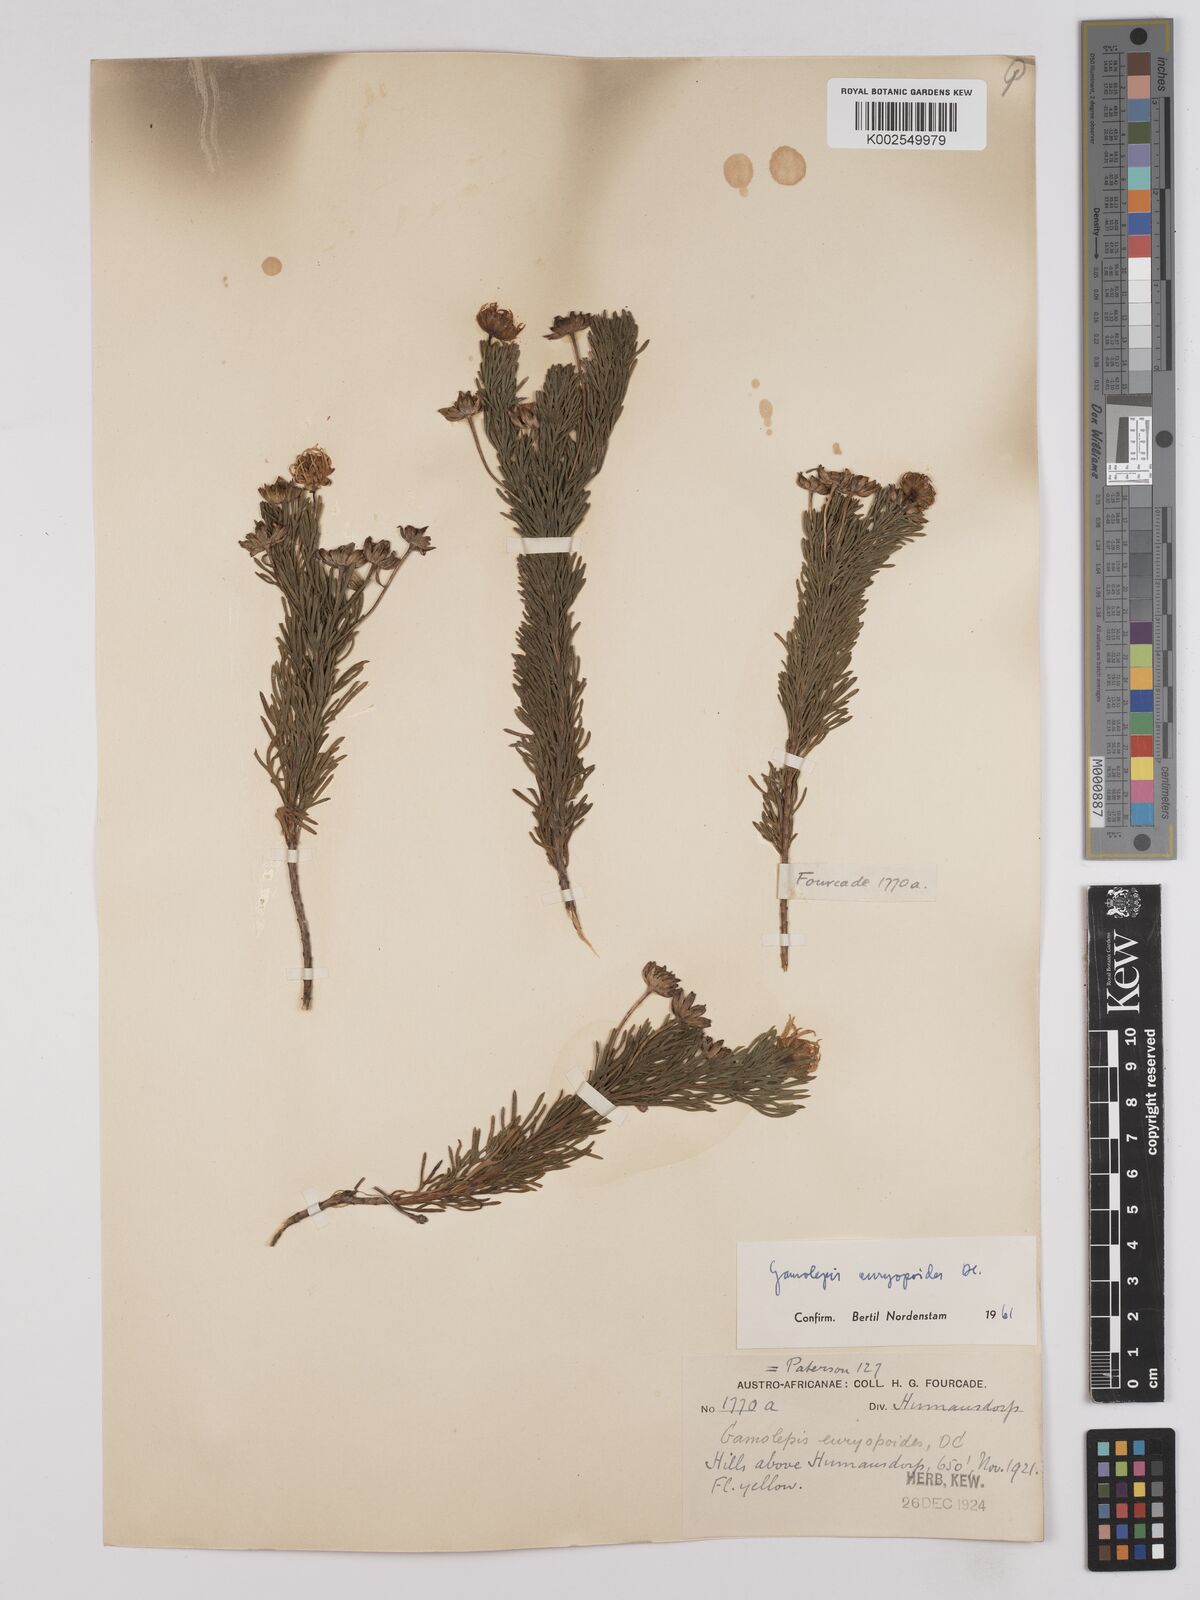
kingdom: Plantae
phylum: Tracheophyta
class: Magnoliopsida
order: Asterales
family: Asteraceae
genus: Euryops
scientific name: Euryops euryopoides
